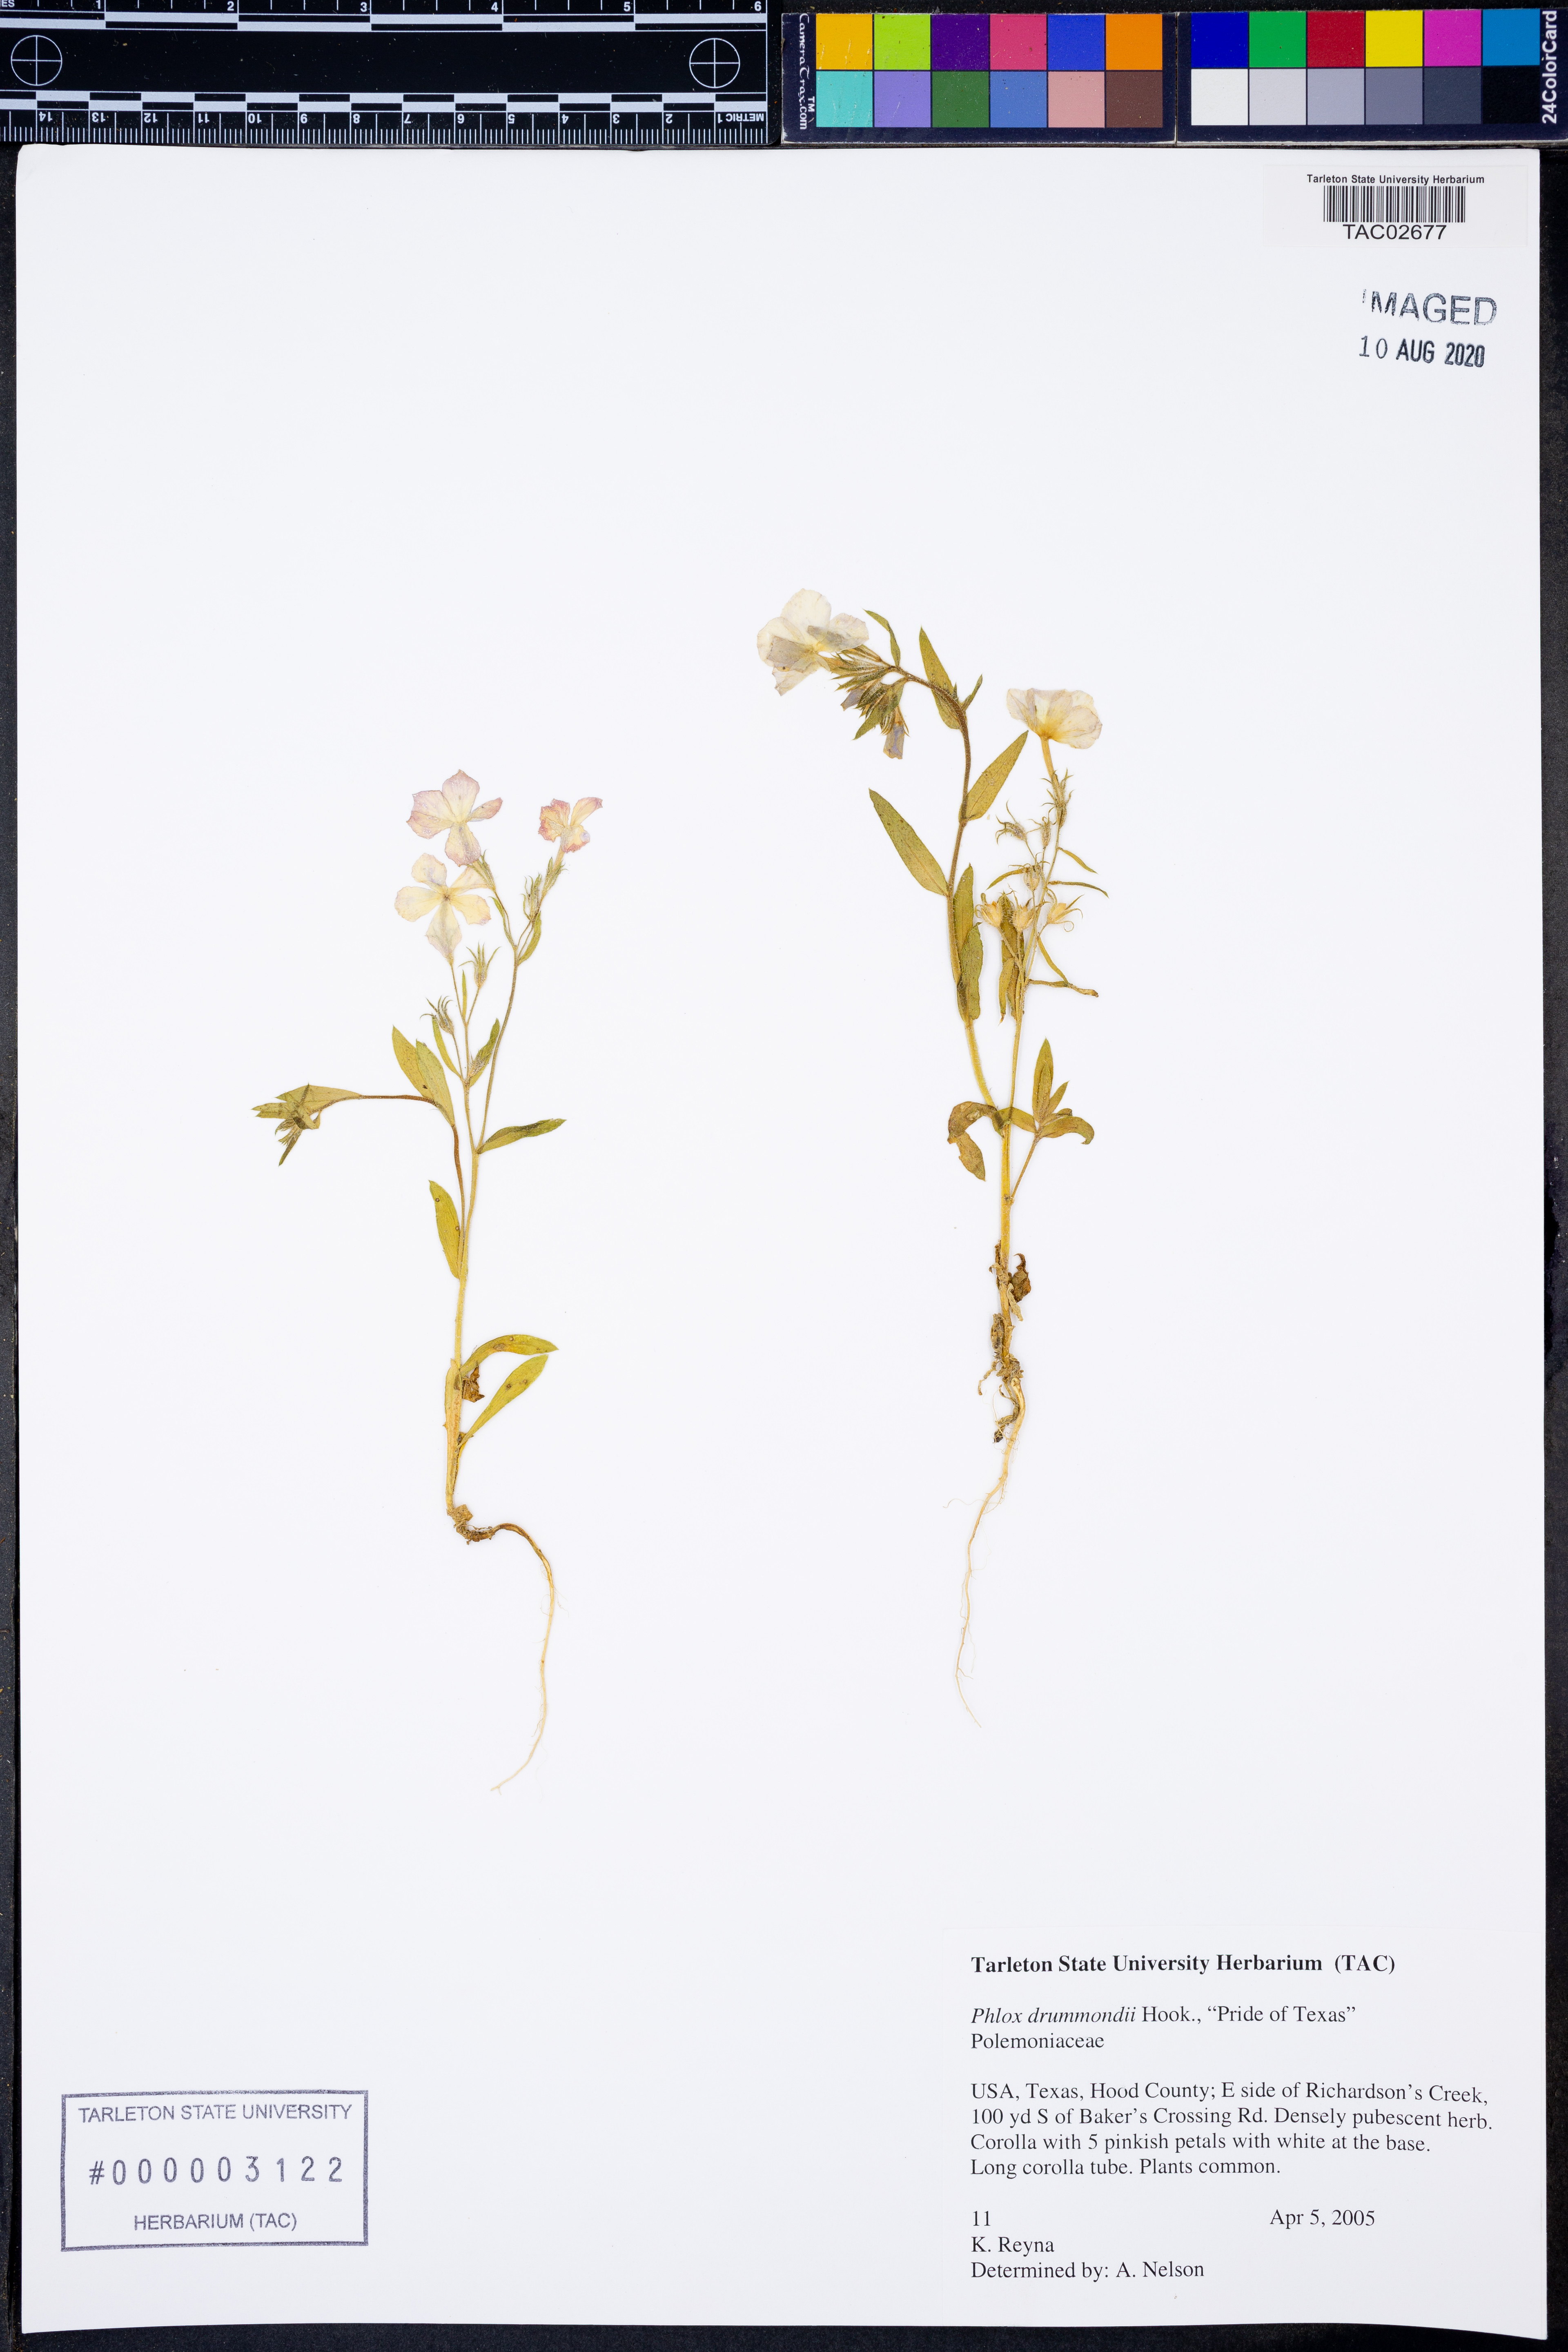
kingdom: Plantae
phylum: Tracheophyta
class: Magnoliopsida
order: Ericales
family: Polemoniaceae
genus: Phlox
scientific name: Phlox drummondii
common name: Drummond's phlox
